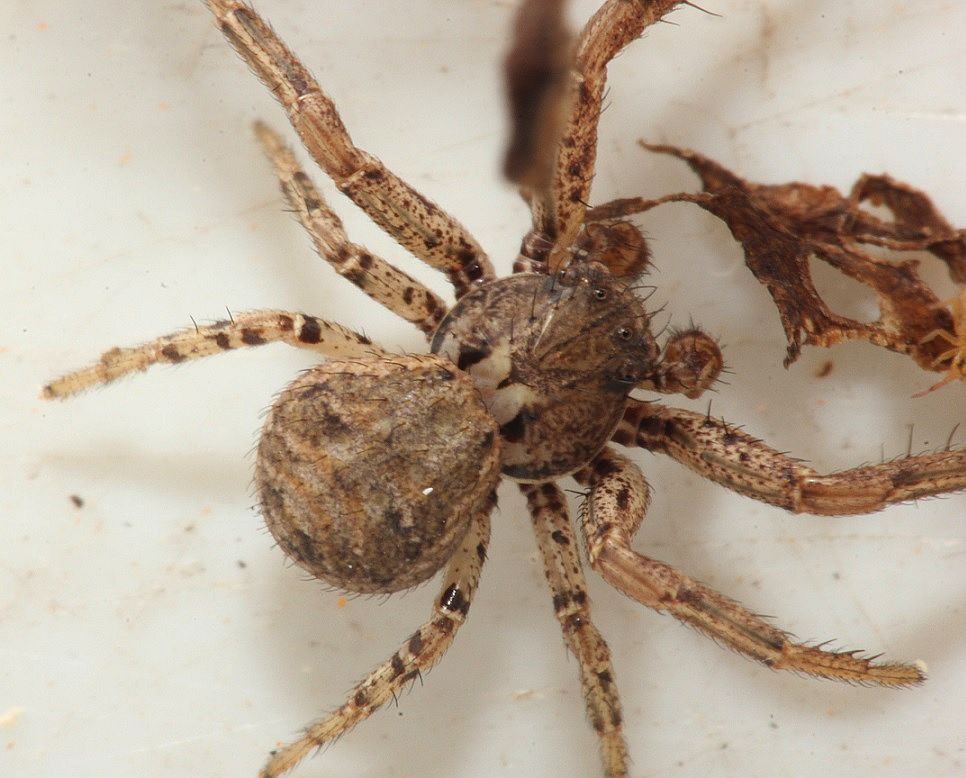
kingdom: Animalia
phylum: Arthropoda
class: Arachnida
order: Araneae
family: Thomisidae
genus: Xysticus
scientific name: Xysticus
